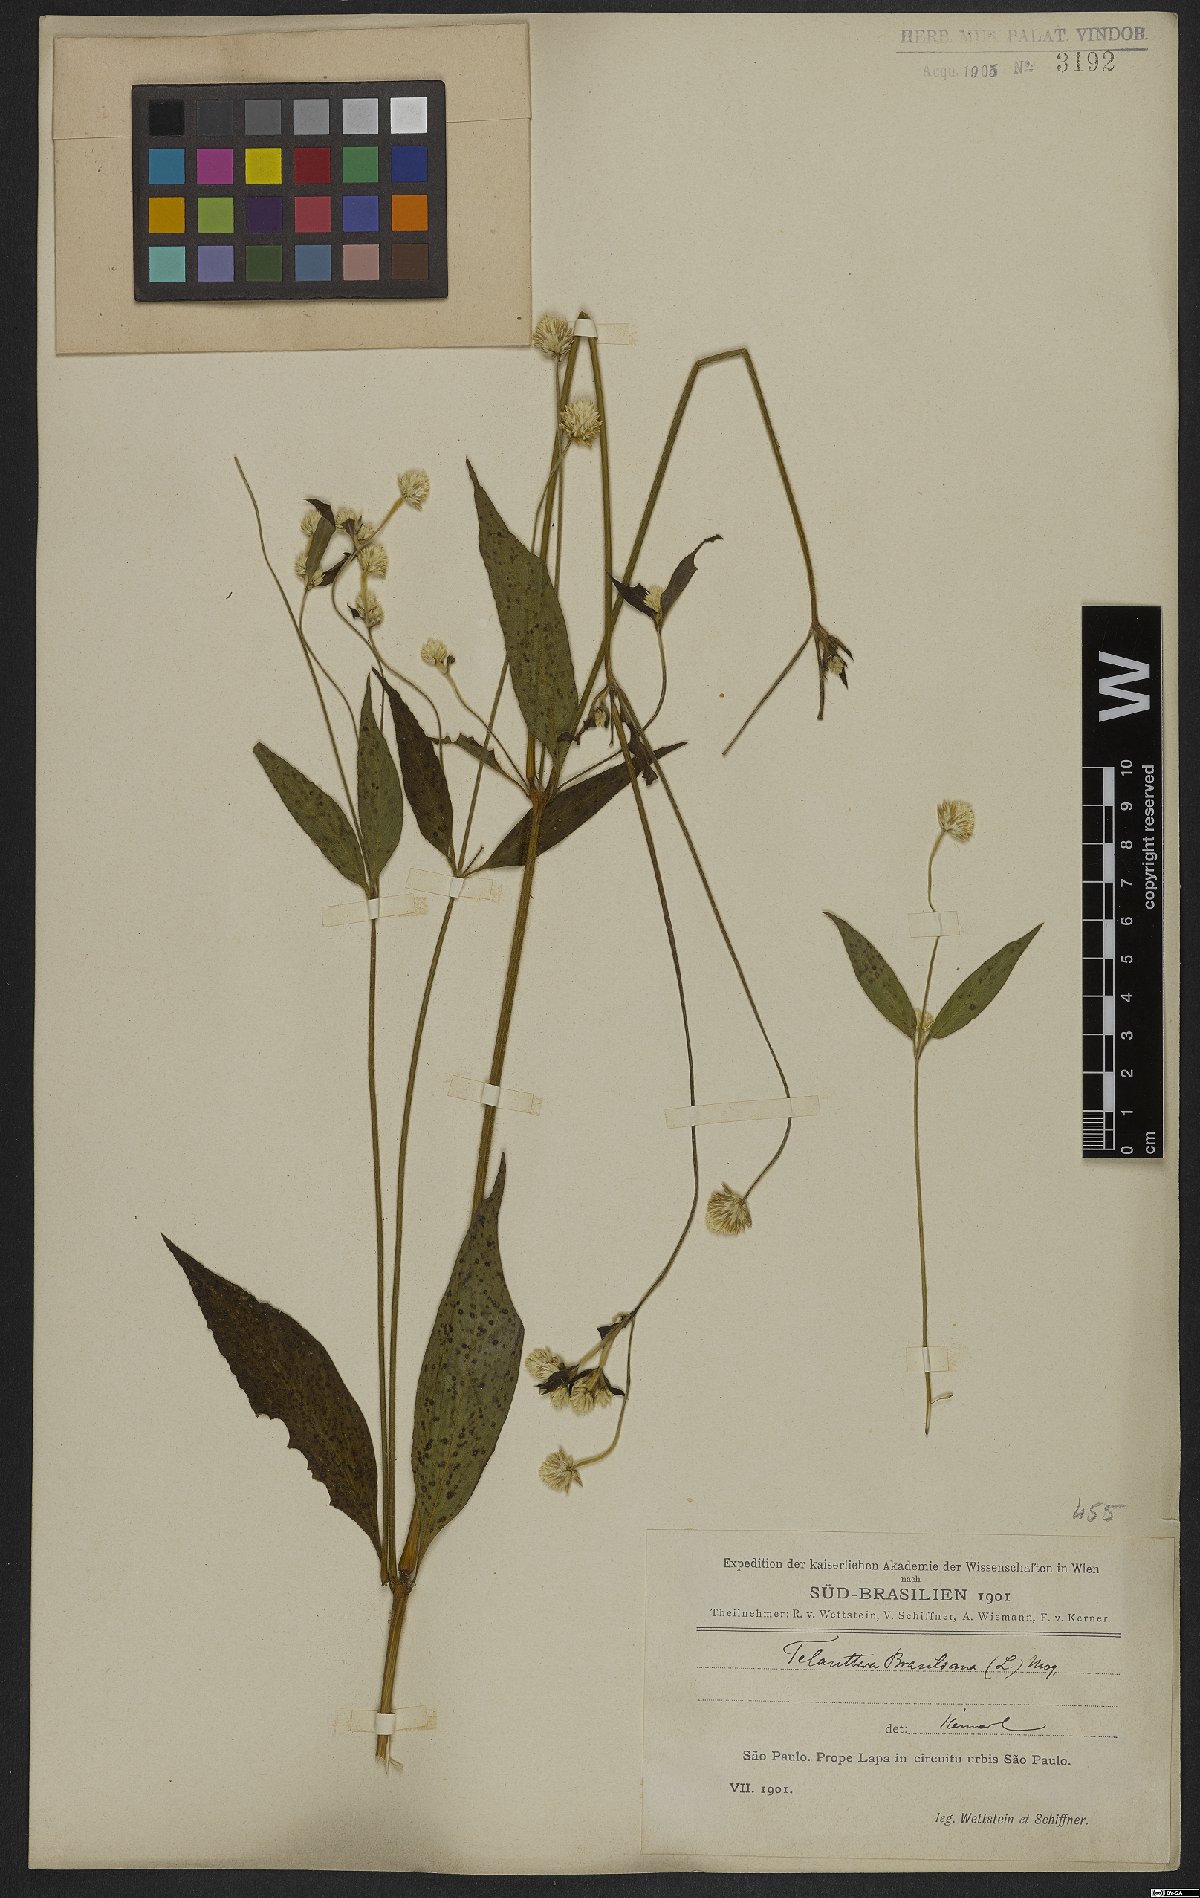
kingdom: Plantae
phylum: Tracheophyta
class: Magnoliopsida
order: Caryophyllales
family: Amaranthaceae
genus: Alternanthera
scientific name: Alternanthera brasiliana
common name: Brazilian joyweed
